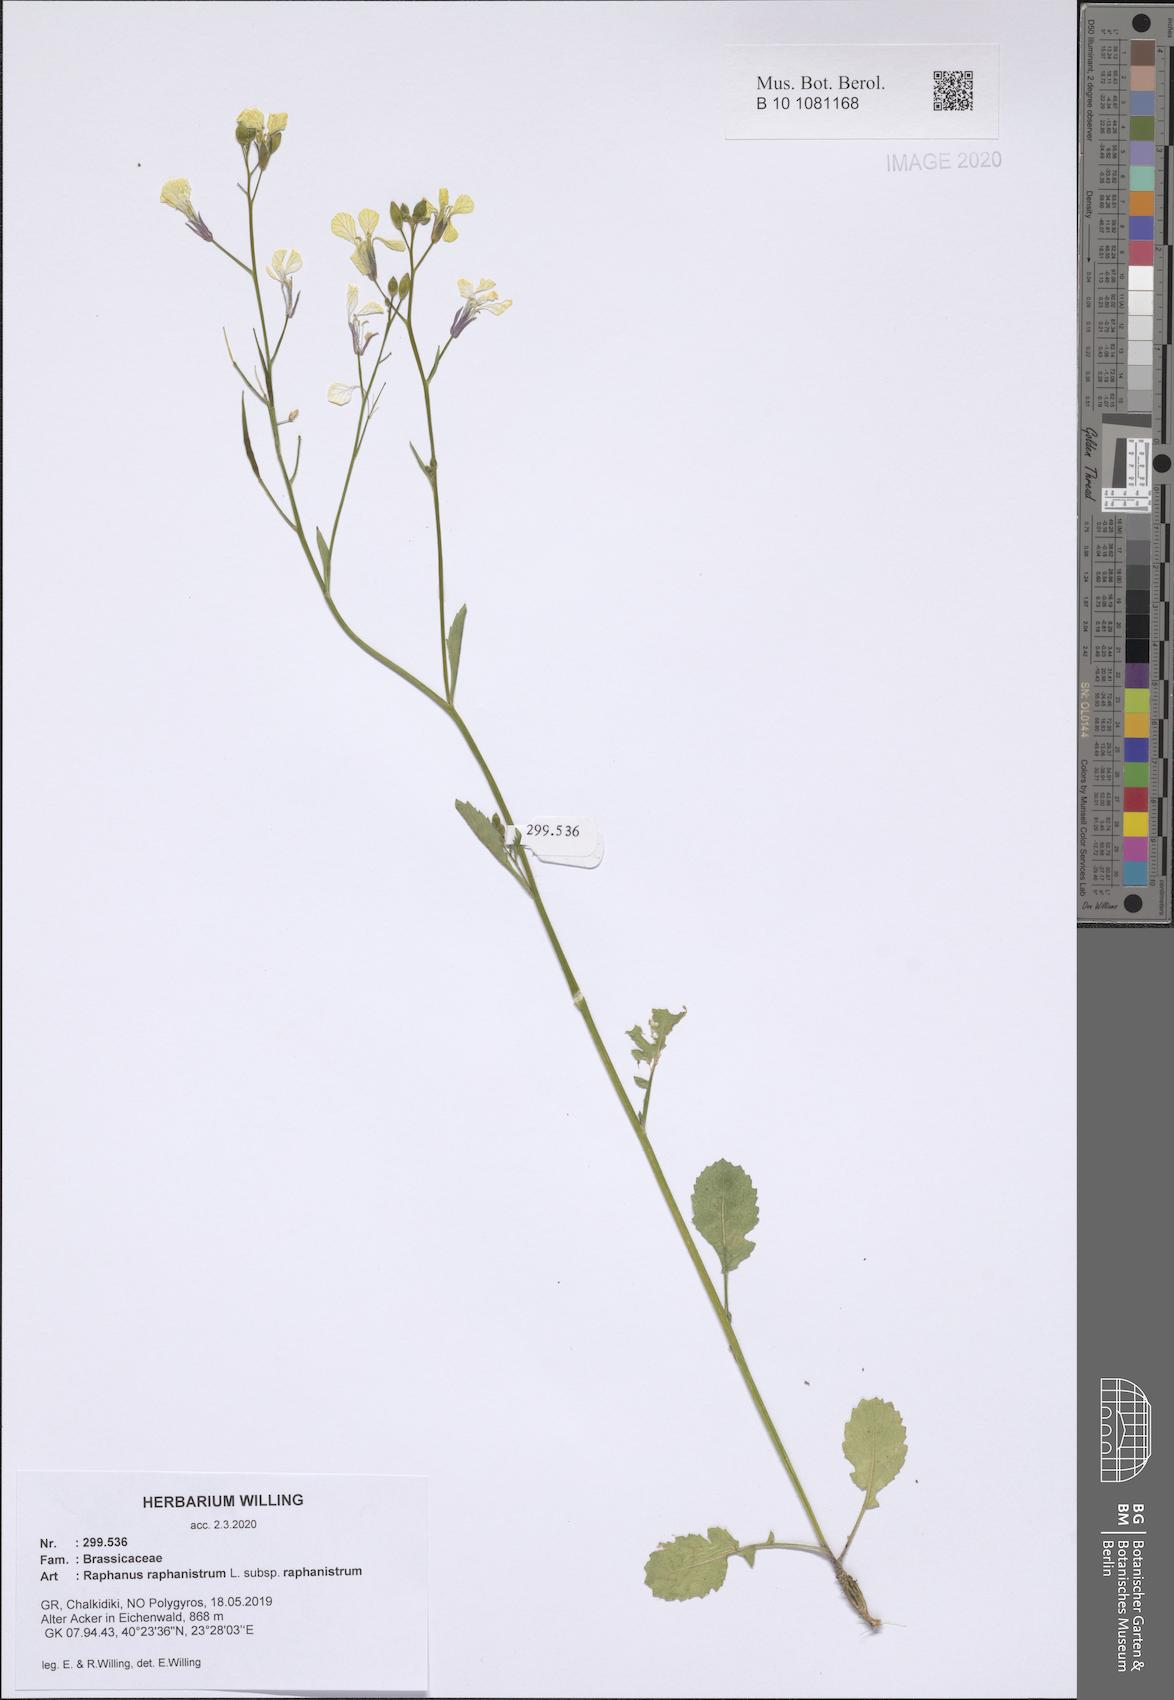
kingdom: Plantae
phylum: Tracheophyta
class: Magnoliopsida
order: Brassicales
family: Brassicaceae
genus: Raphanus
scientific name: Raphanus raphanistrum
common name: Wild radish
